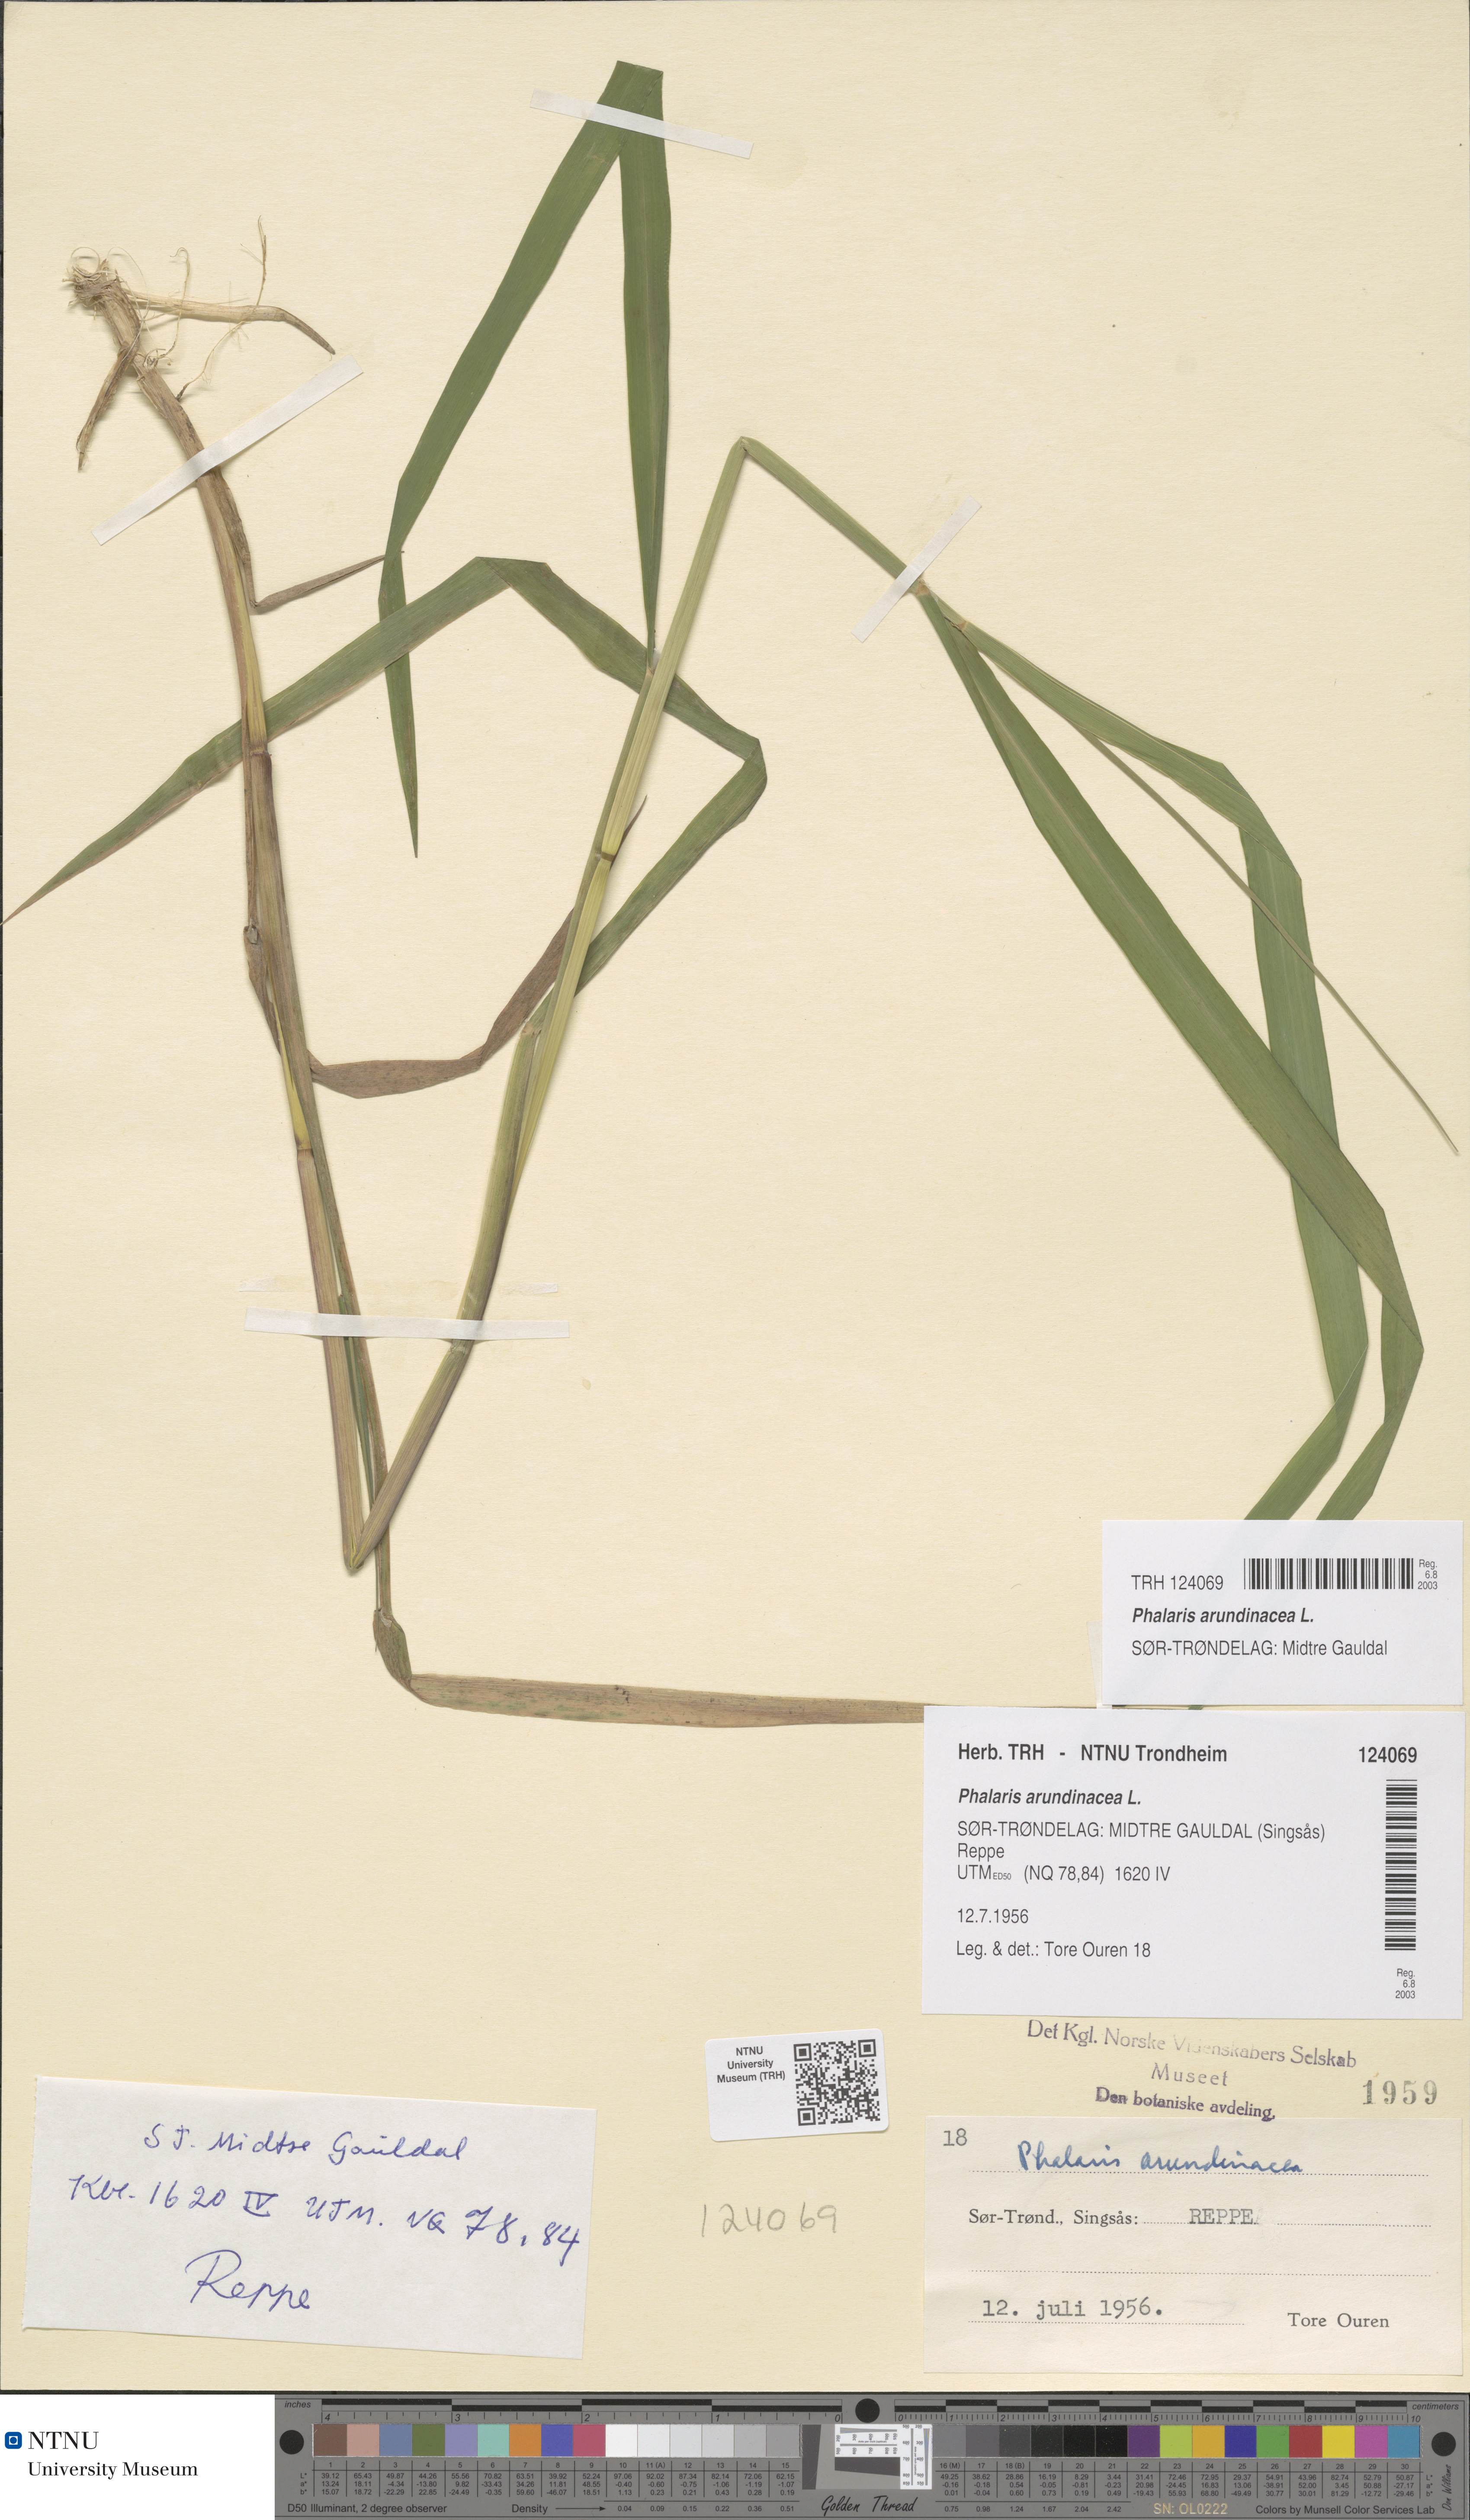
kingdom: Plantae
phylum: Tracheophyta
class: Liliopsida
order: Poales
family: Poaceae
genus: Phalaris
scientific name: Phalaris arundinacea
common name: Reed canary-grass
